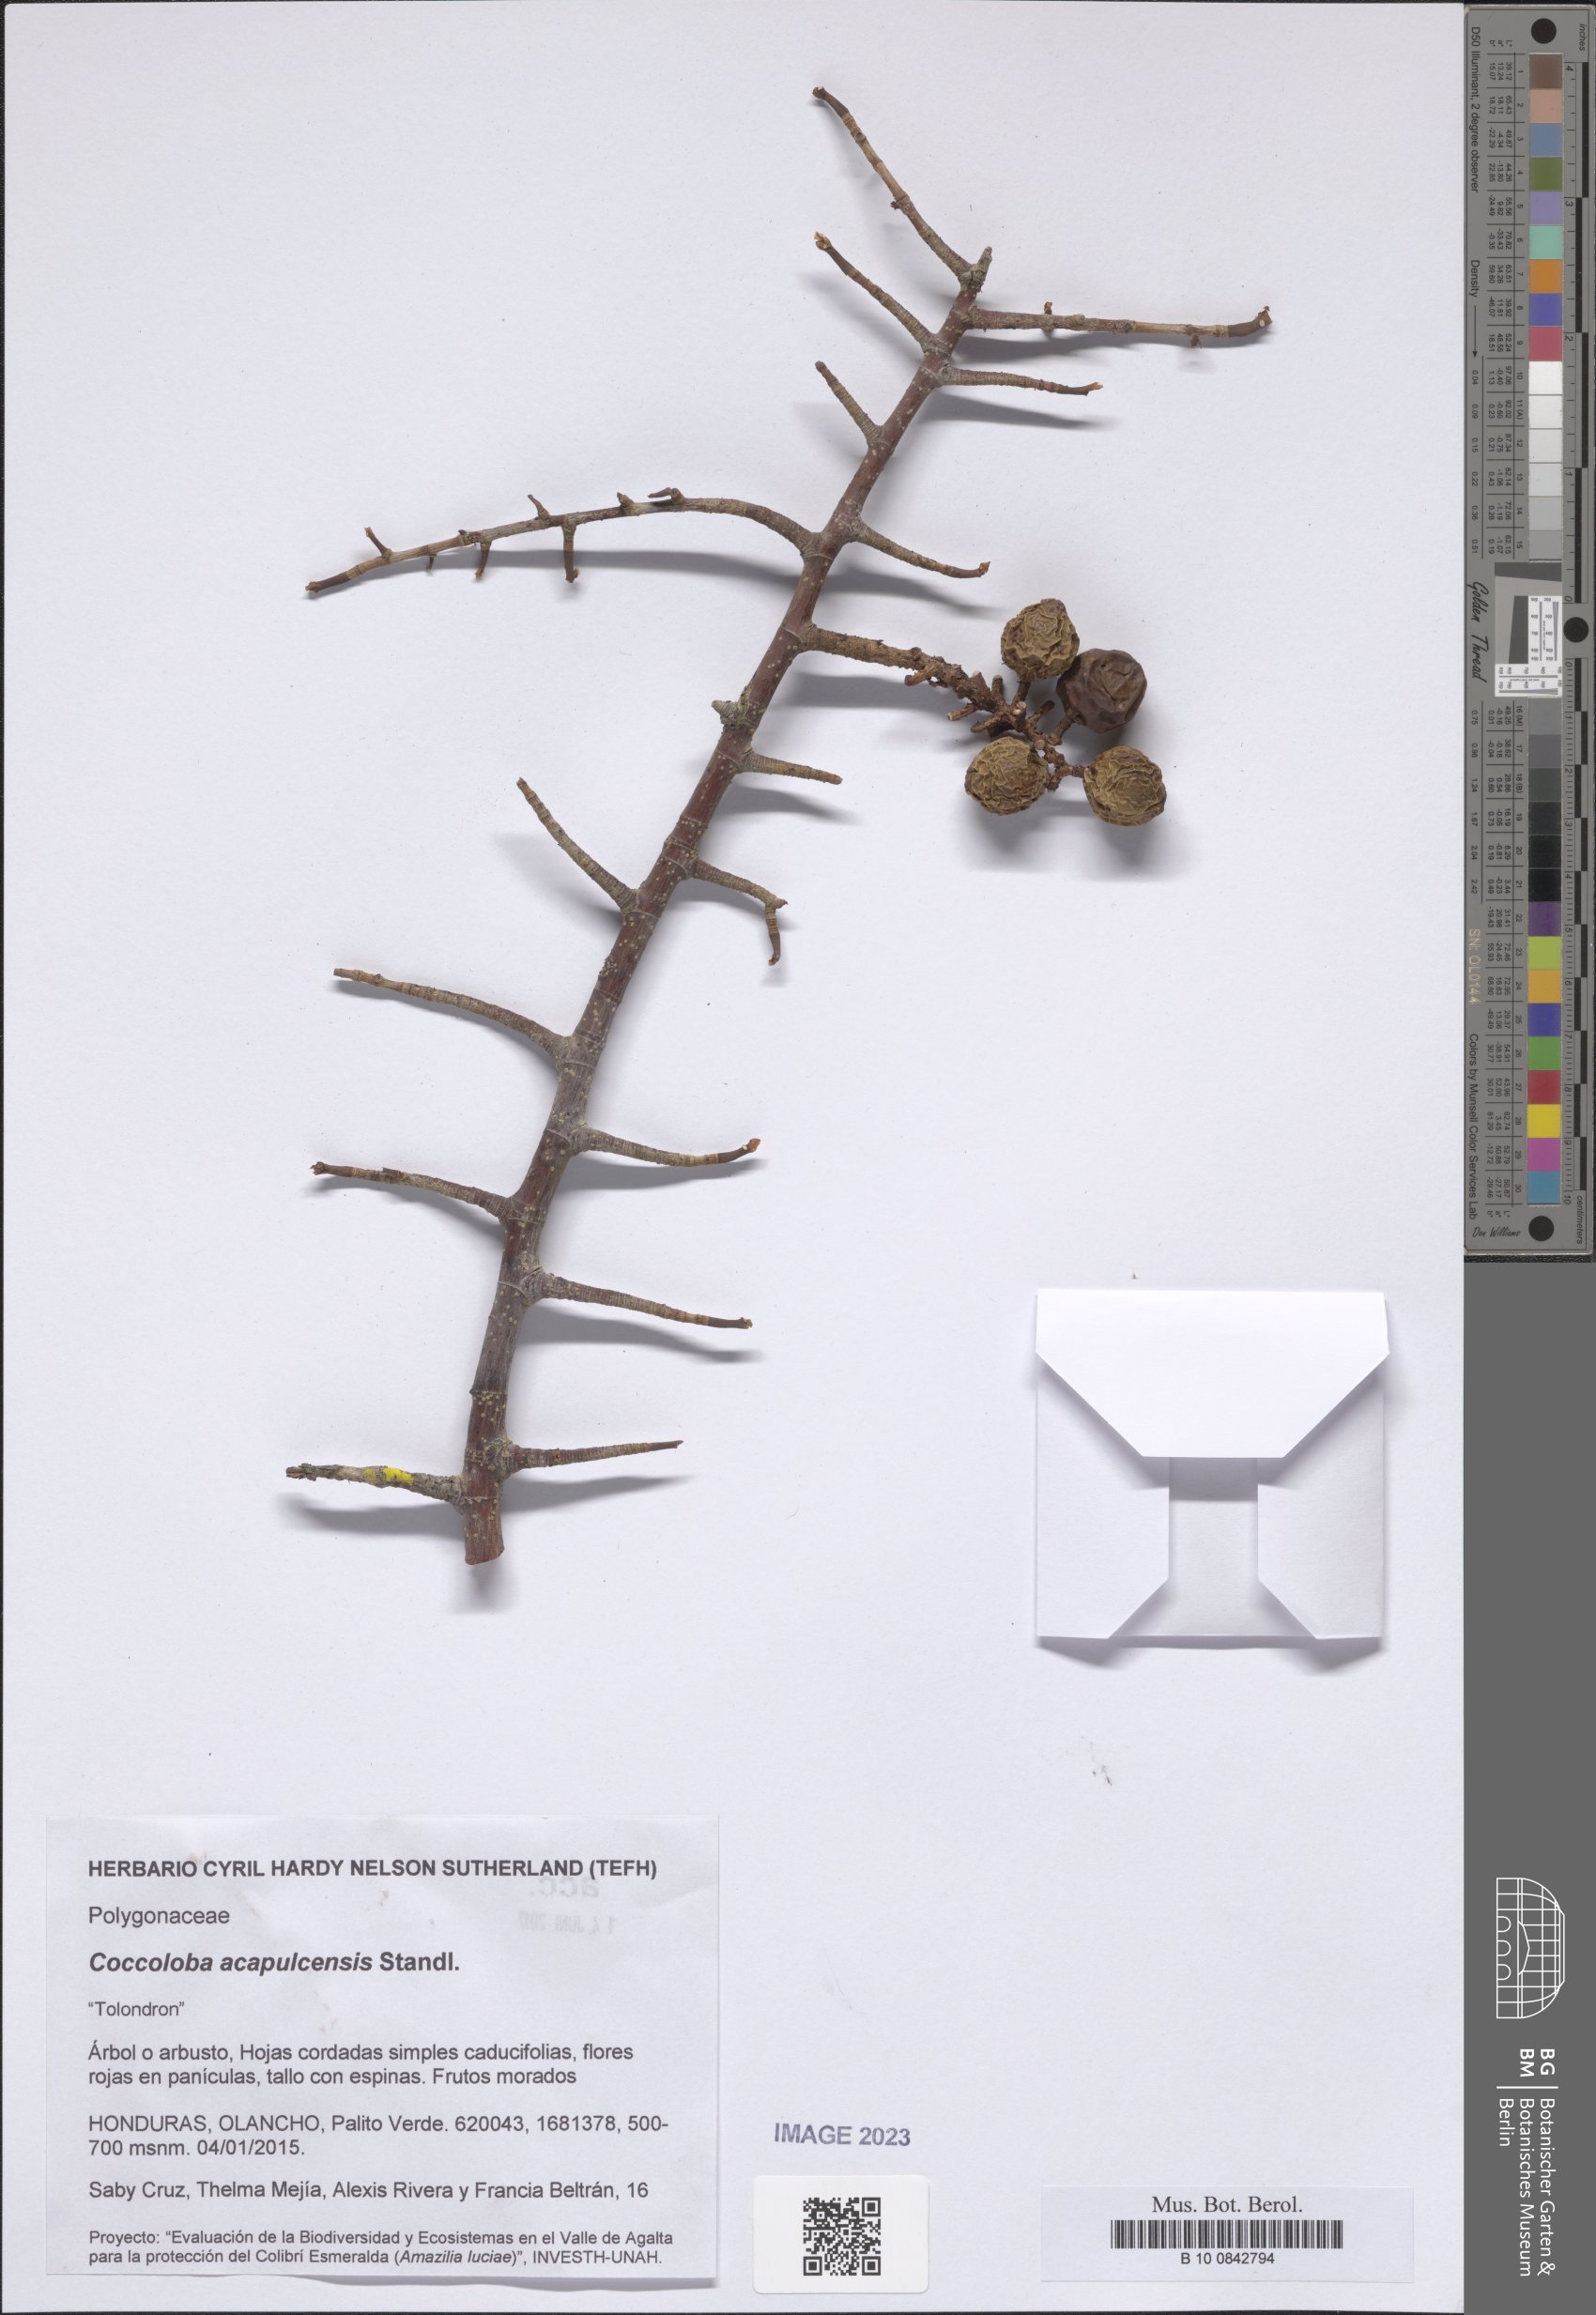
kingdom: Plantae
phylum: Tracheophyta
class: Magnoliopsida
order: Caryophyllales
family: Polygonaceae
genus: Coccoloba
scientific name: Coccoloba acapulcensis
